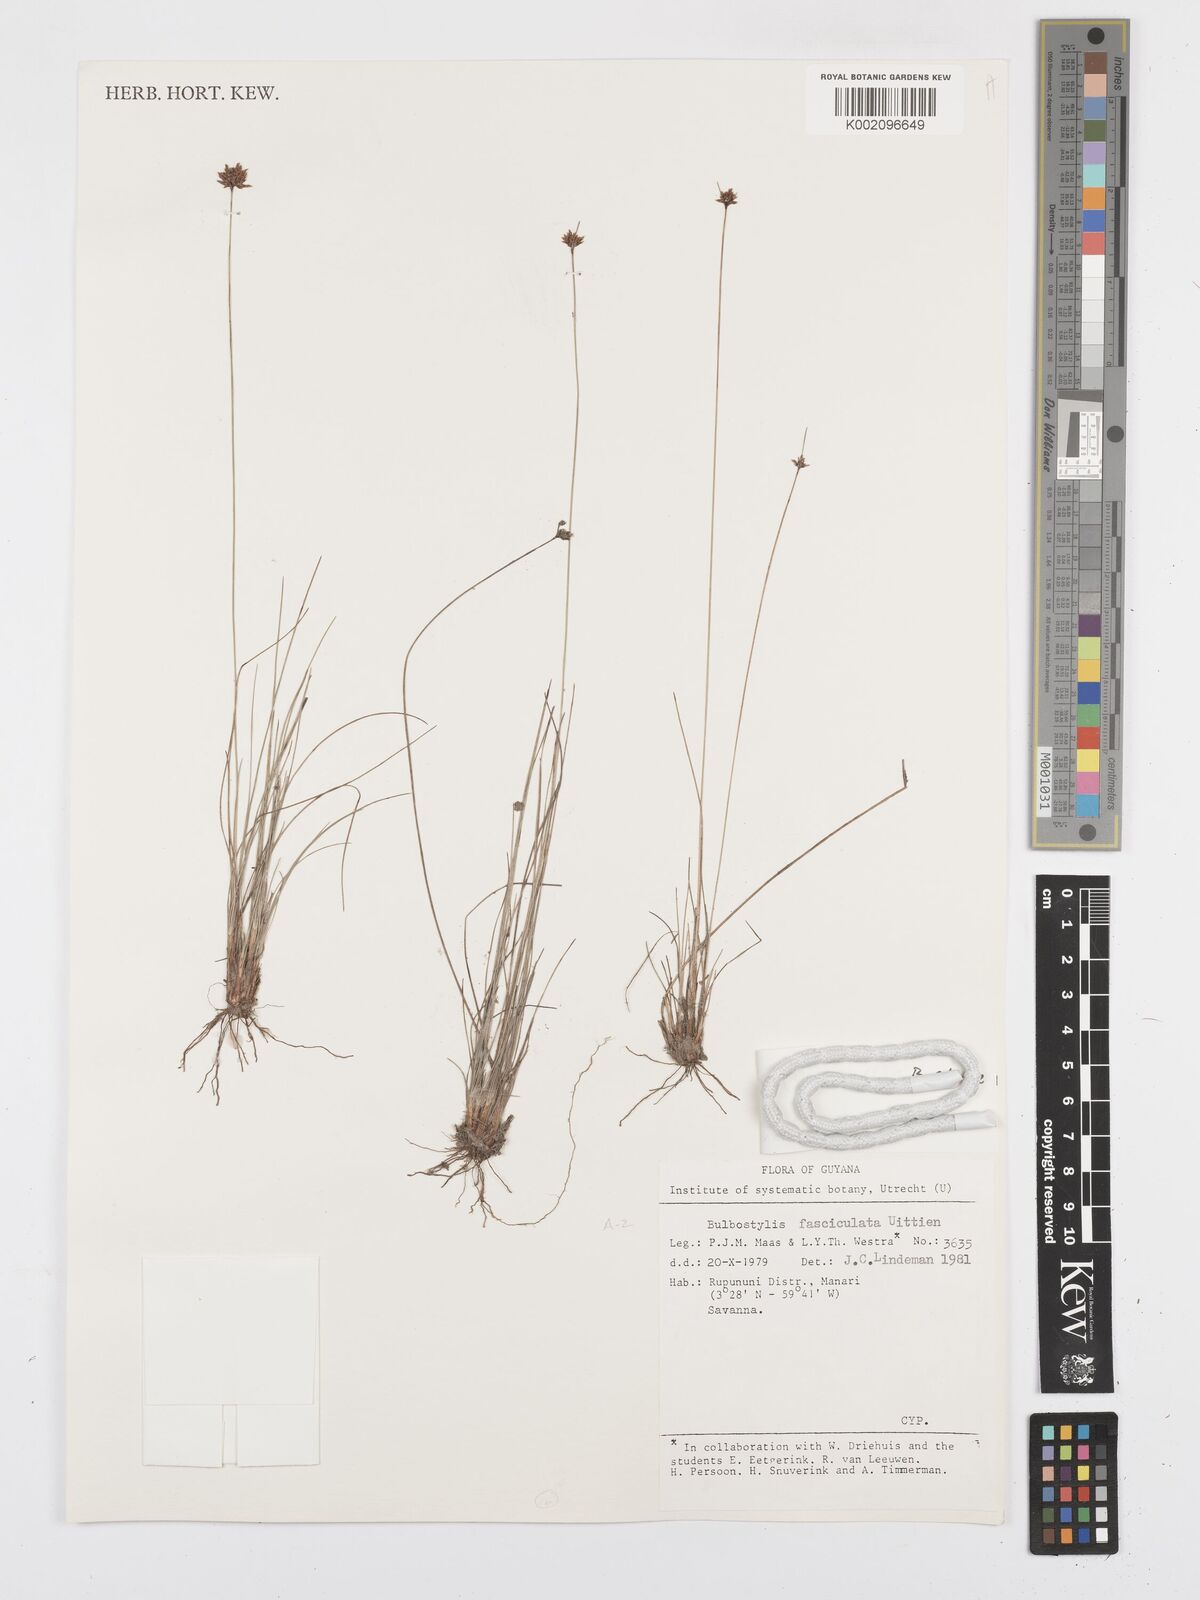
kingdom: Plantae
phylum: Tracheophyta
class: Liliopsida
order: Poales
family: Cyperaceae
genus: Bulbostylis
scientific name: Bulbostylis junciformis
